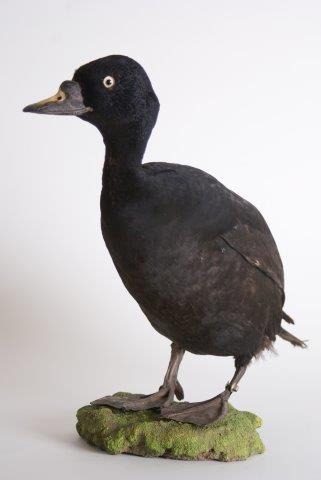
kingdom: Animalia
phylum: Chordata
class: Aves
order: Anseriformes
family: Anatidae
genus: Melanitta
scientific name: Melanitta nigra
